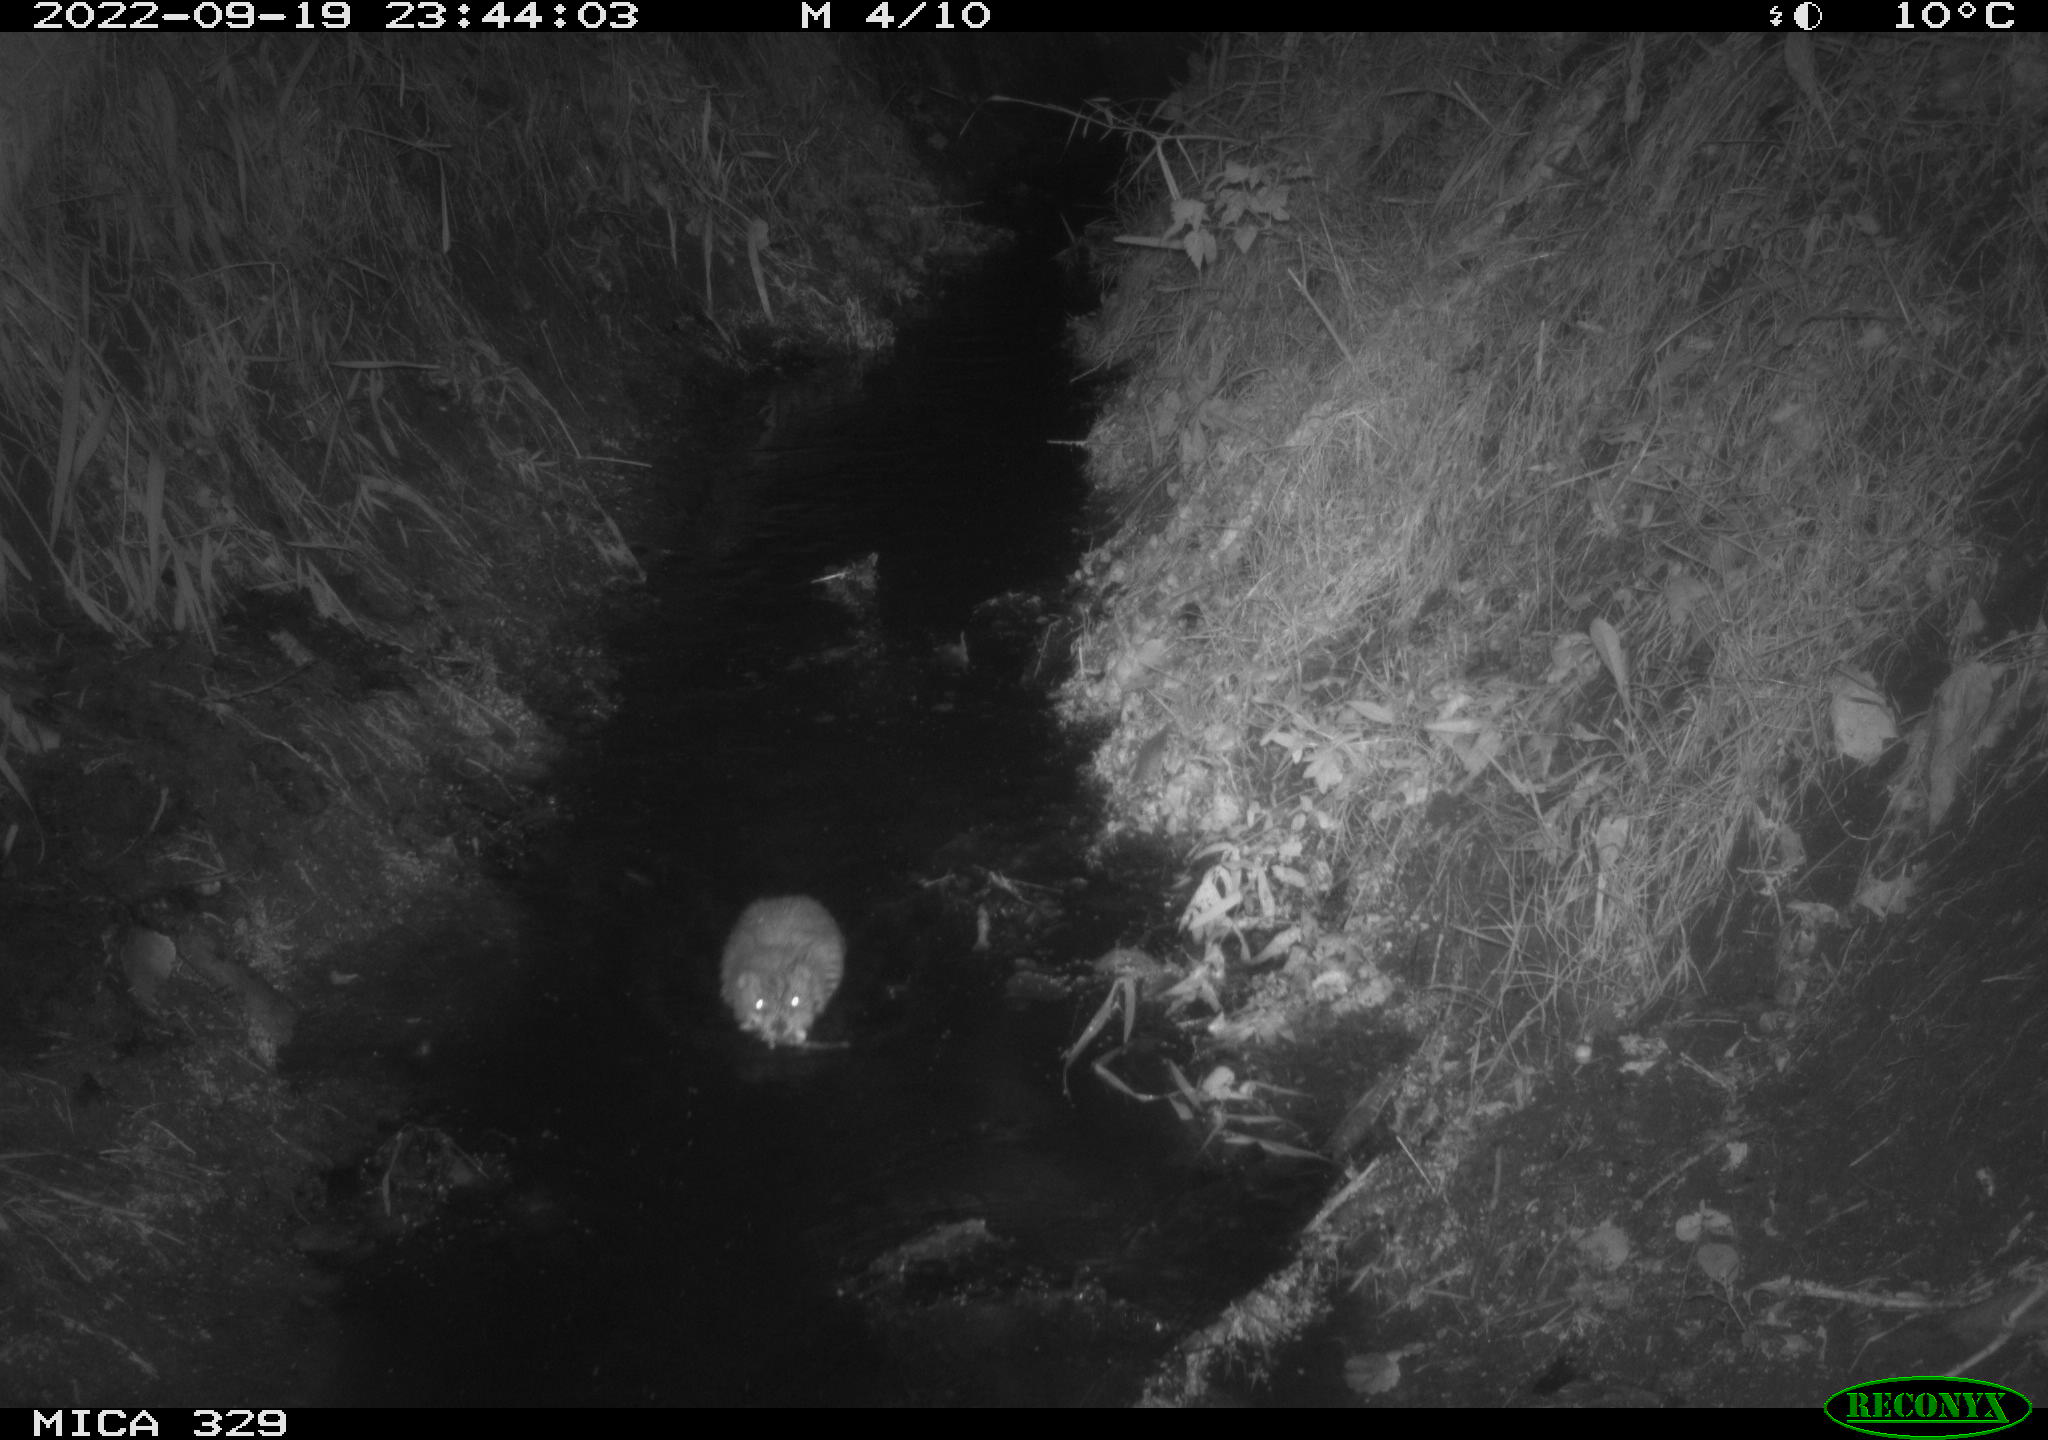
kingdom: Animalia
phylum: Chordata
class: Mammalia
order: Rodentia
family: Cricetidae
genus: Ondatra
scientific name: Ondatra zibethicus
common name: Muskrat
